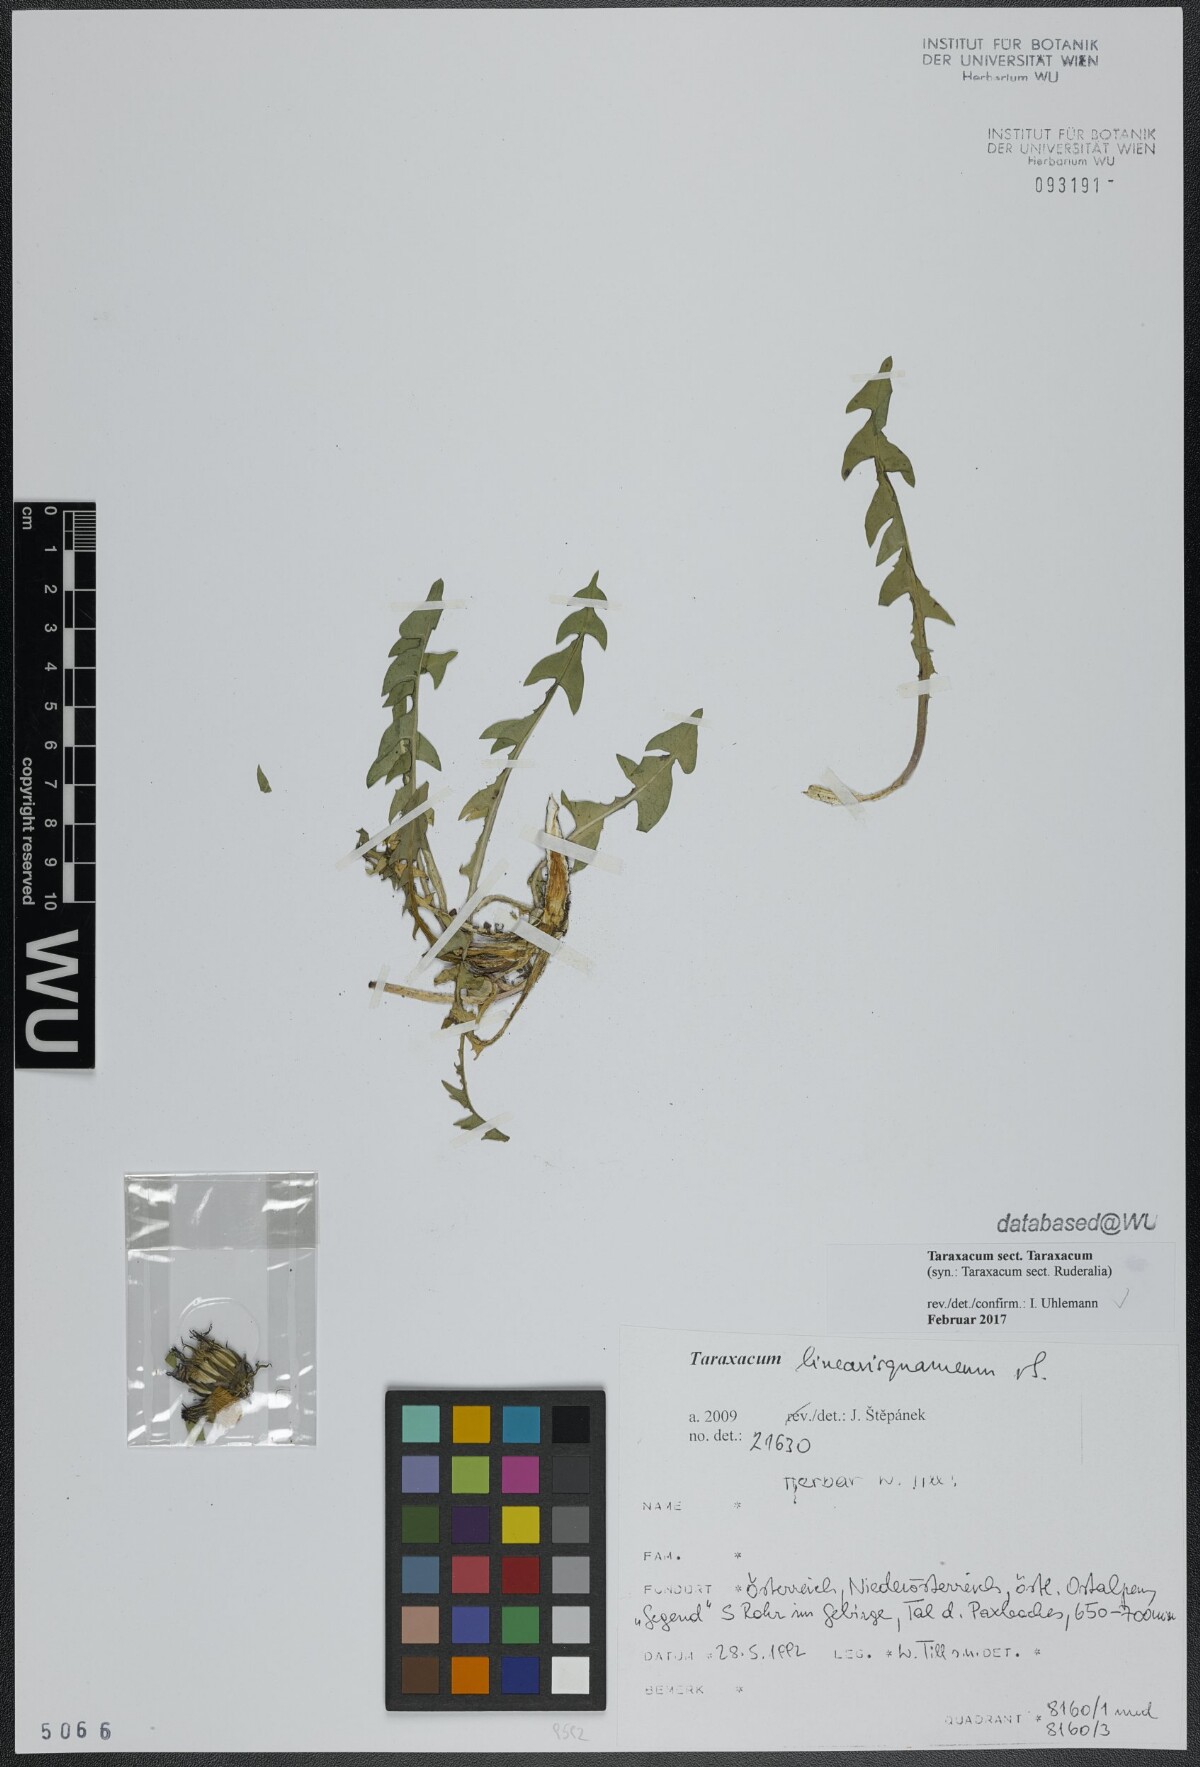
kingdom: Plantae
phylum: Tracheophyta
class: Magnoliopsida
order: Asterales
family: Asteraceae
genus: Taraxacum
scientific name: Taraxacum
